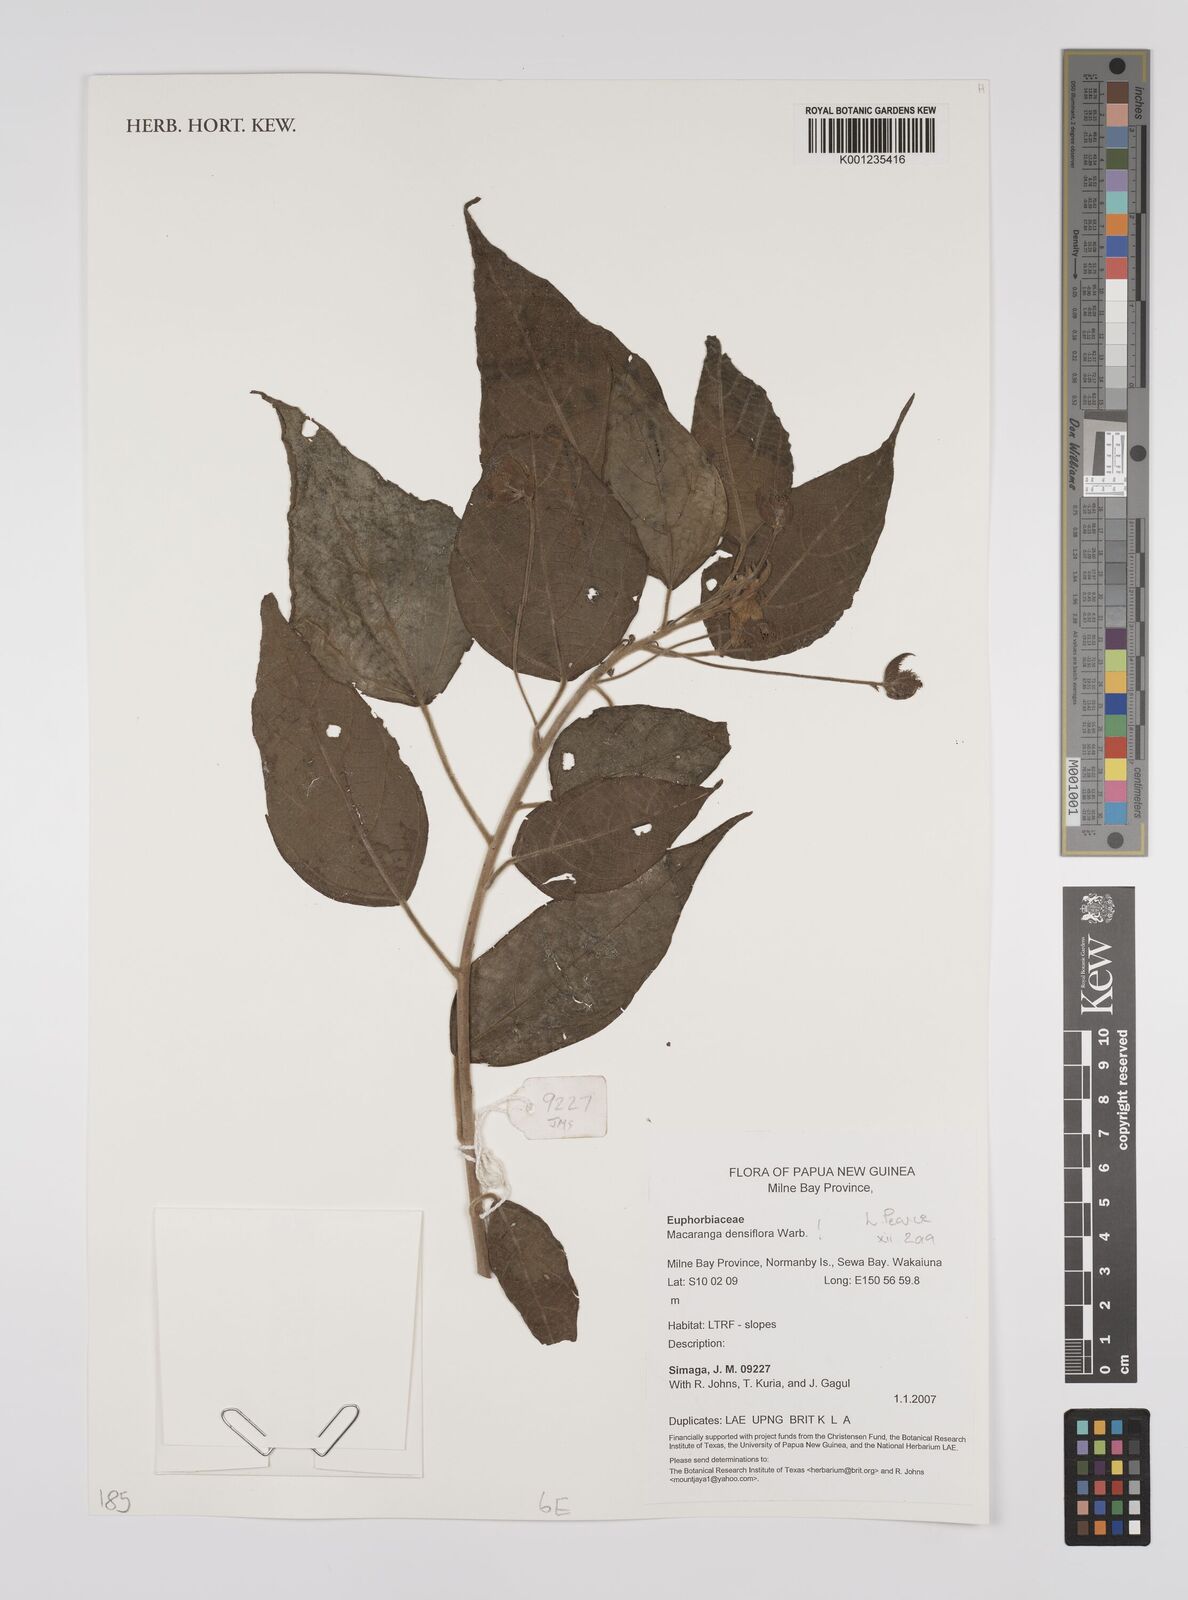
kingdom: Plantae
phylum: Tracheophyta
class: Magnoliopsida
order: Malpighiales
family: Euphorbiaceae
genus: Macaranga
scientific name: Macaranga densiflora
